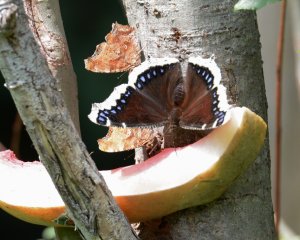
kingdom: Animalia
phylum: Arthropoda
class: Insecta
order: Lepidoptera
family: Nymphalidae
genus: Nymphalis
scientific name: Nymphalis antiopa
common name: Mourning Cloak
